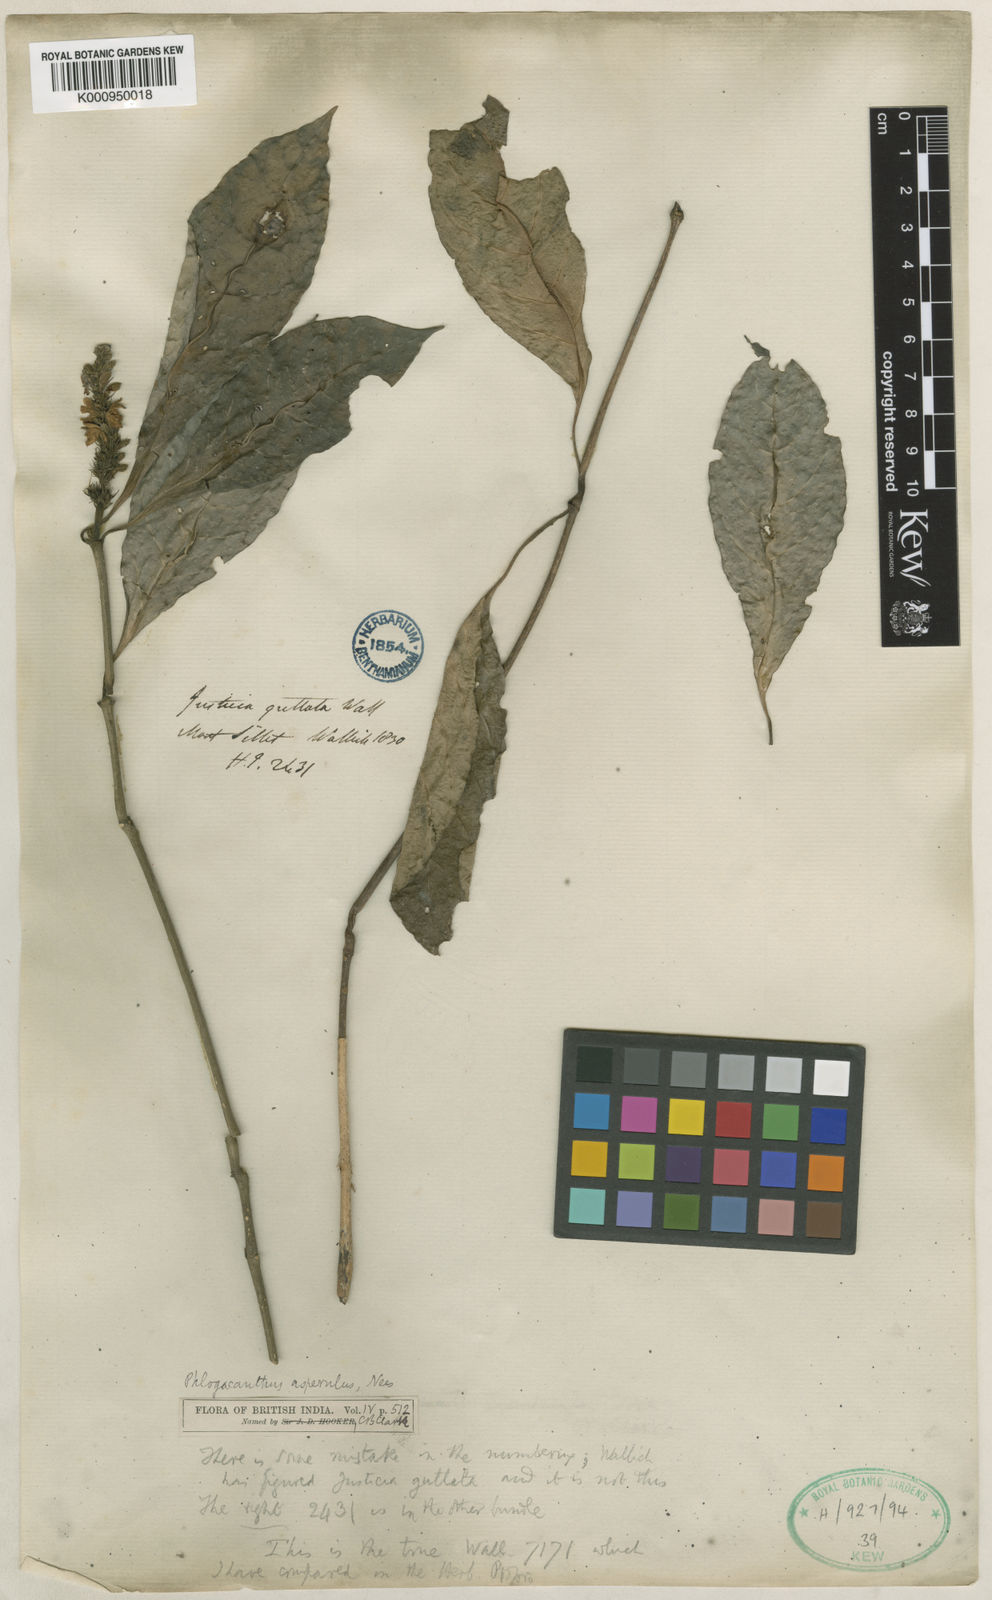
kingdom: Plantae
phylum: Tracheophyta
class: Magnoliopsida
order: Lamiales
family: Acanthaceae
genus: Phlogacanthus
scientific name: Phlogacanthus vitellinus
